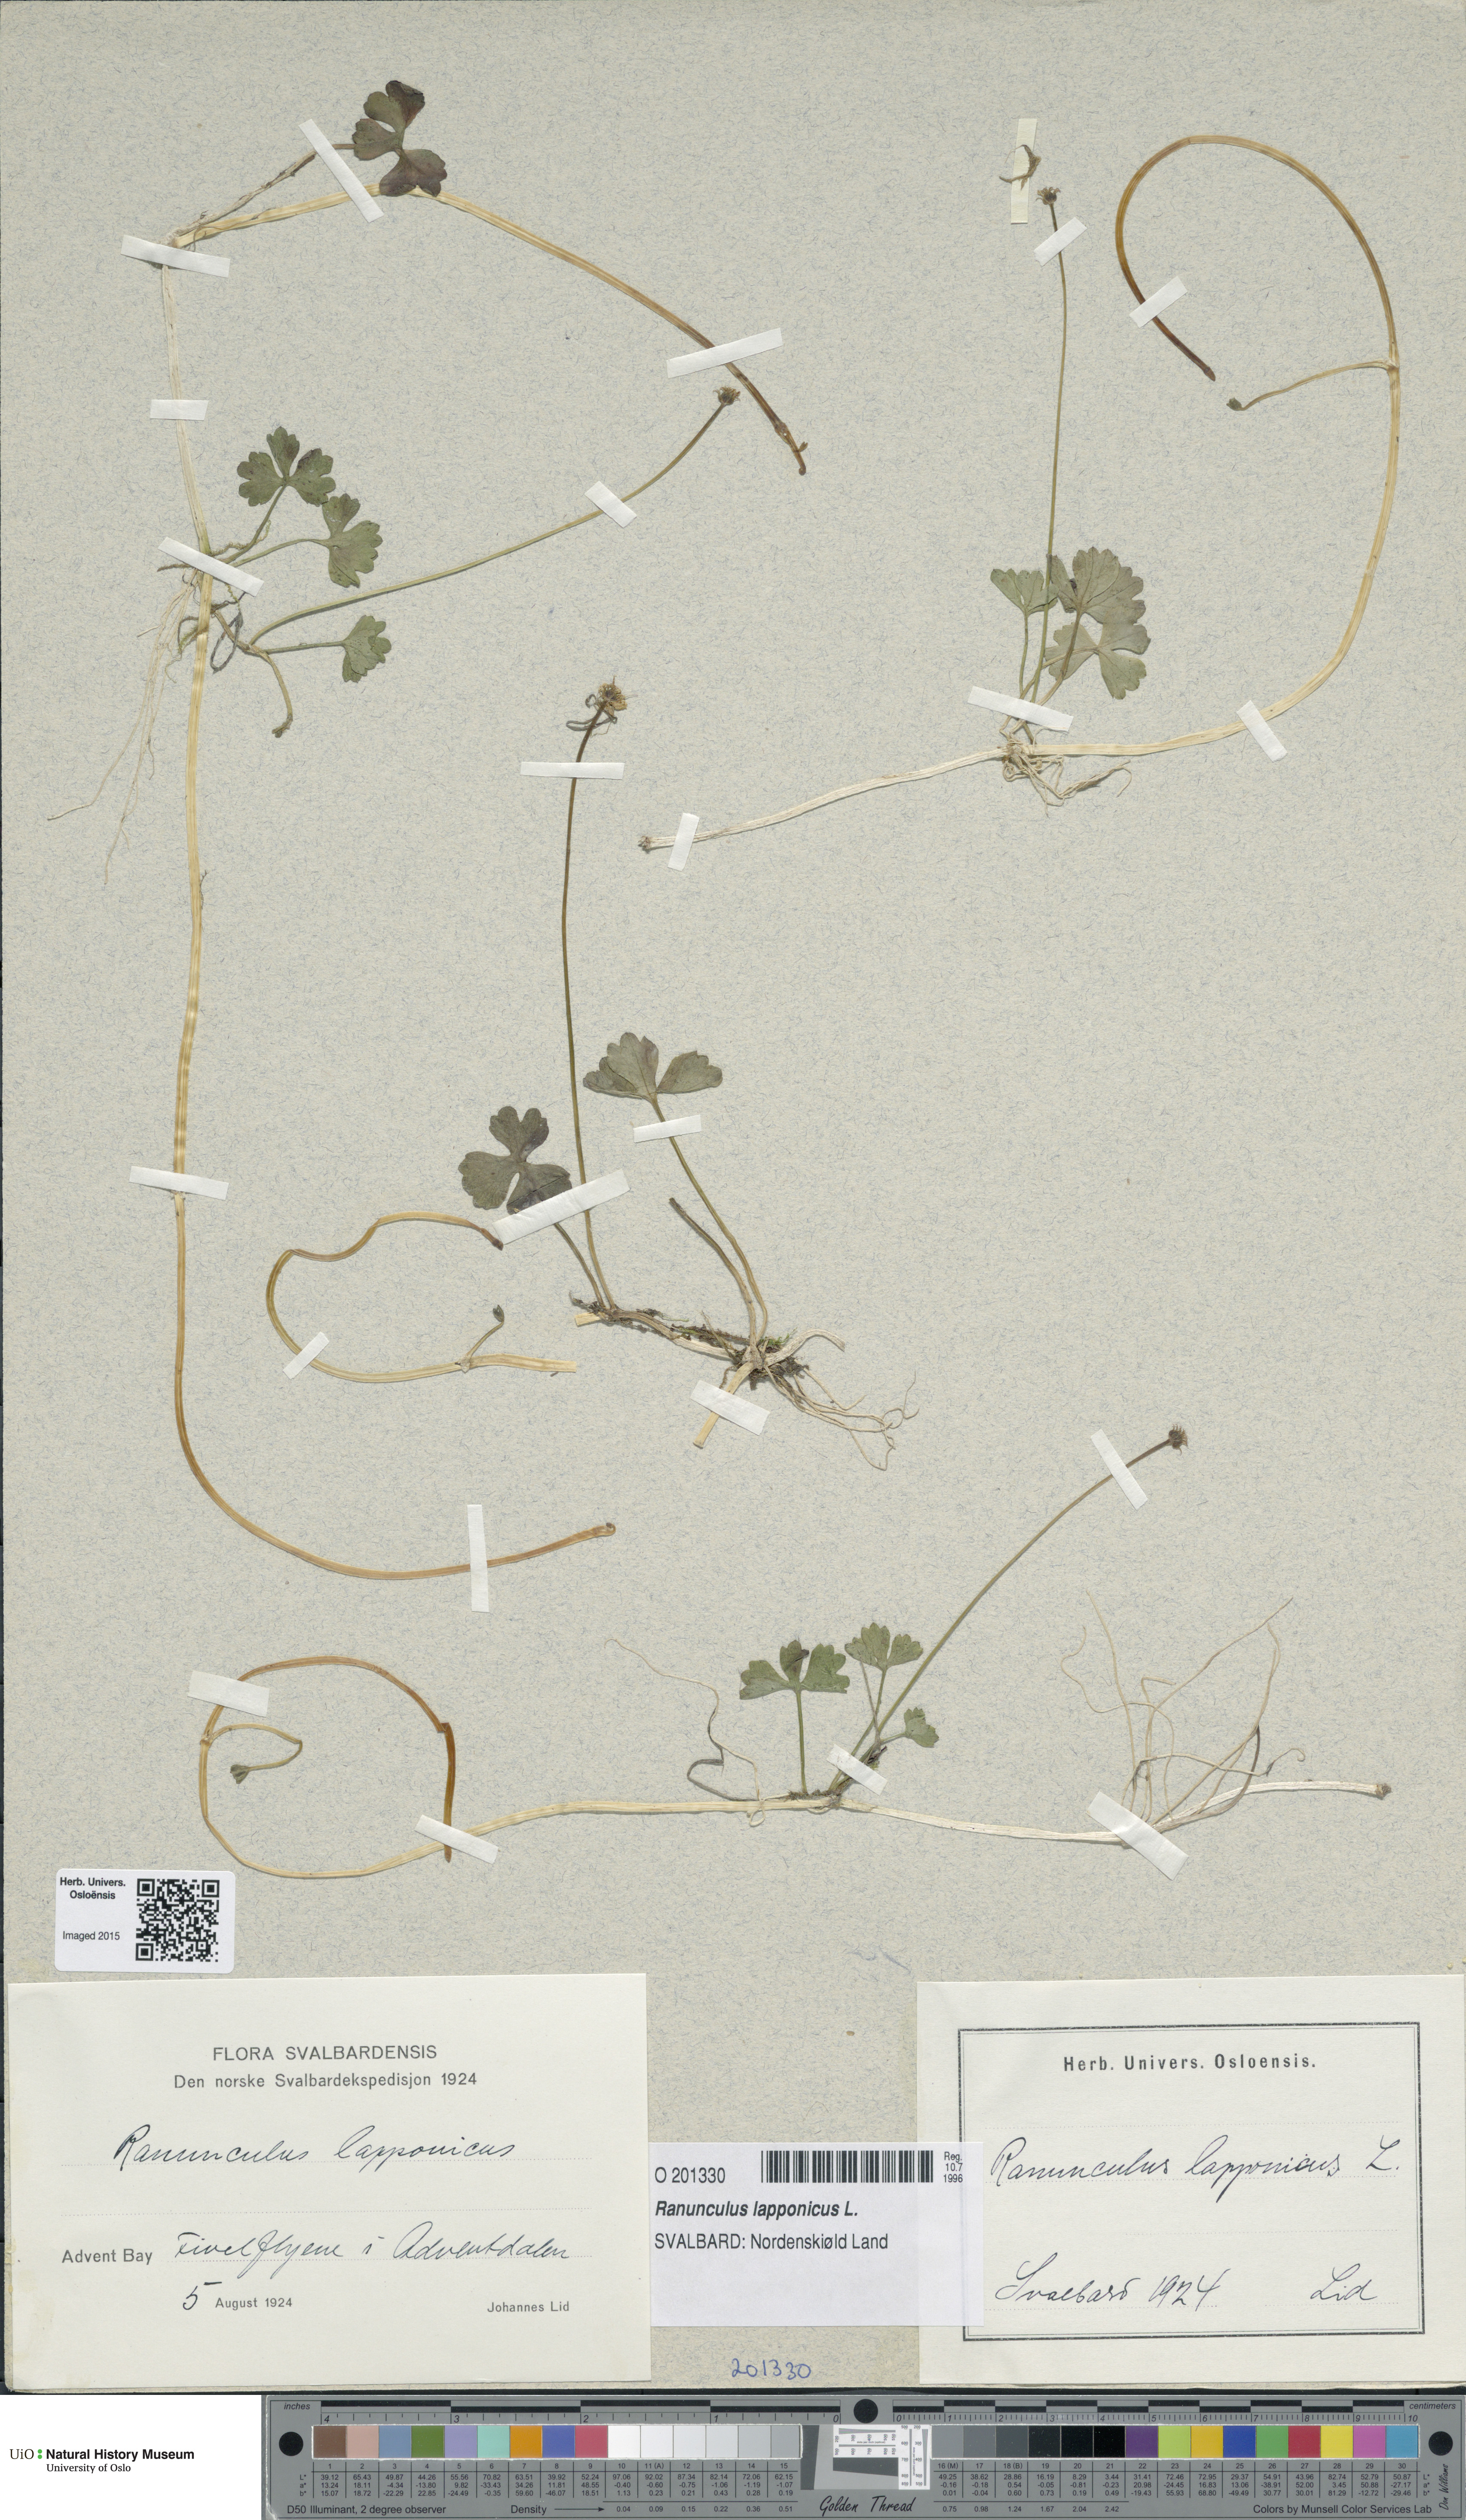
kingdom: Plantae
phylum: Tracheophyta
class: Magnoliopsida
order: Ranunculales
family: Ranunculaceae
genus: Coptidium
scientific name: Coptidium lapponicum
